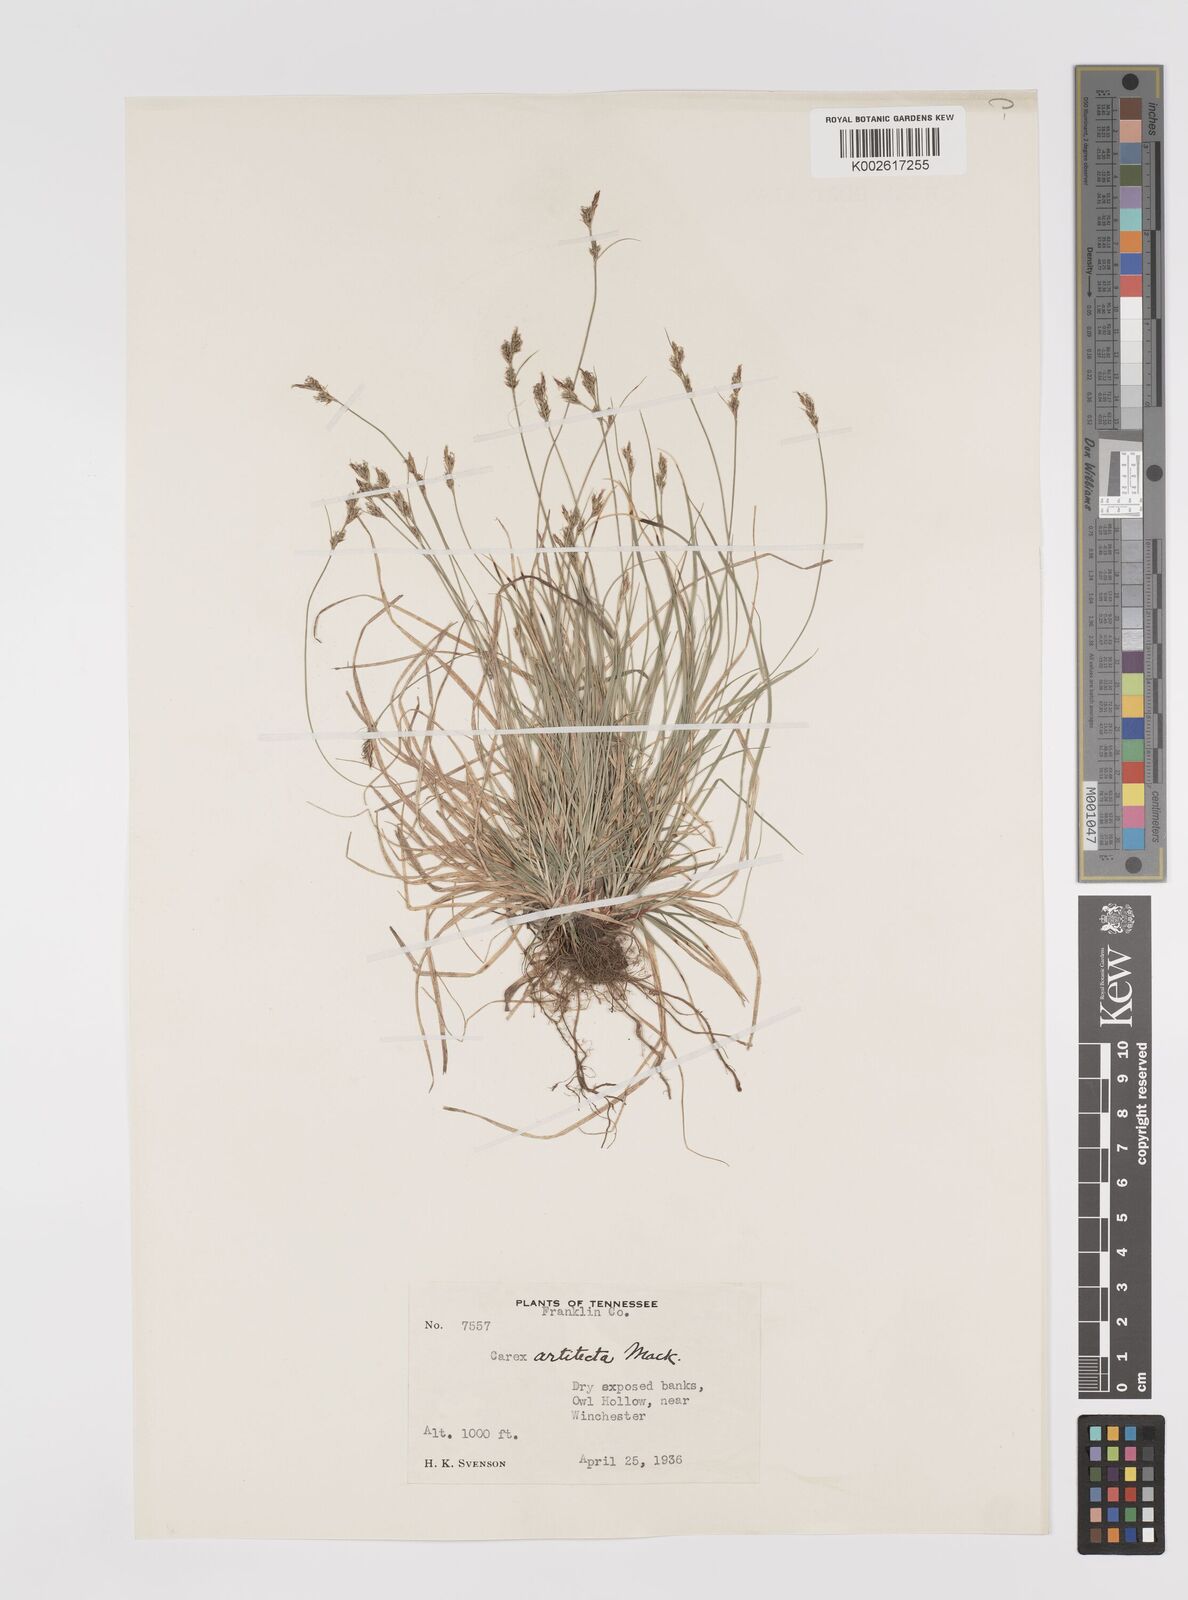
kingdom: Plantae
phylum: Tracheophyta
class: Liliopsida
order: Poales
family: Cyperaceae
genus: Carex
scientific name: Carex albicans
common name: Bellow-beaked sedge
